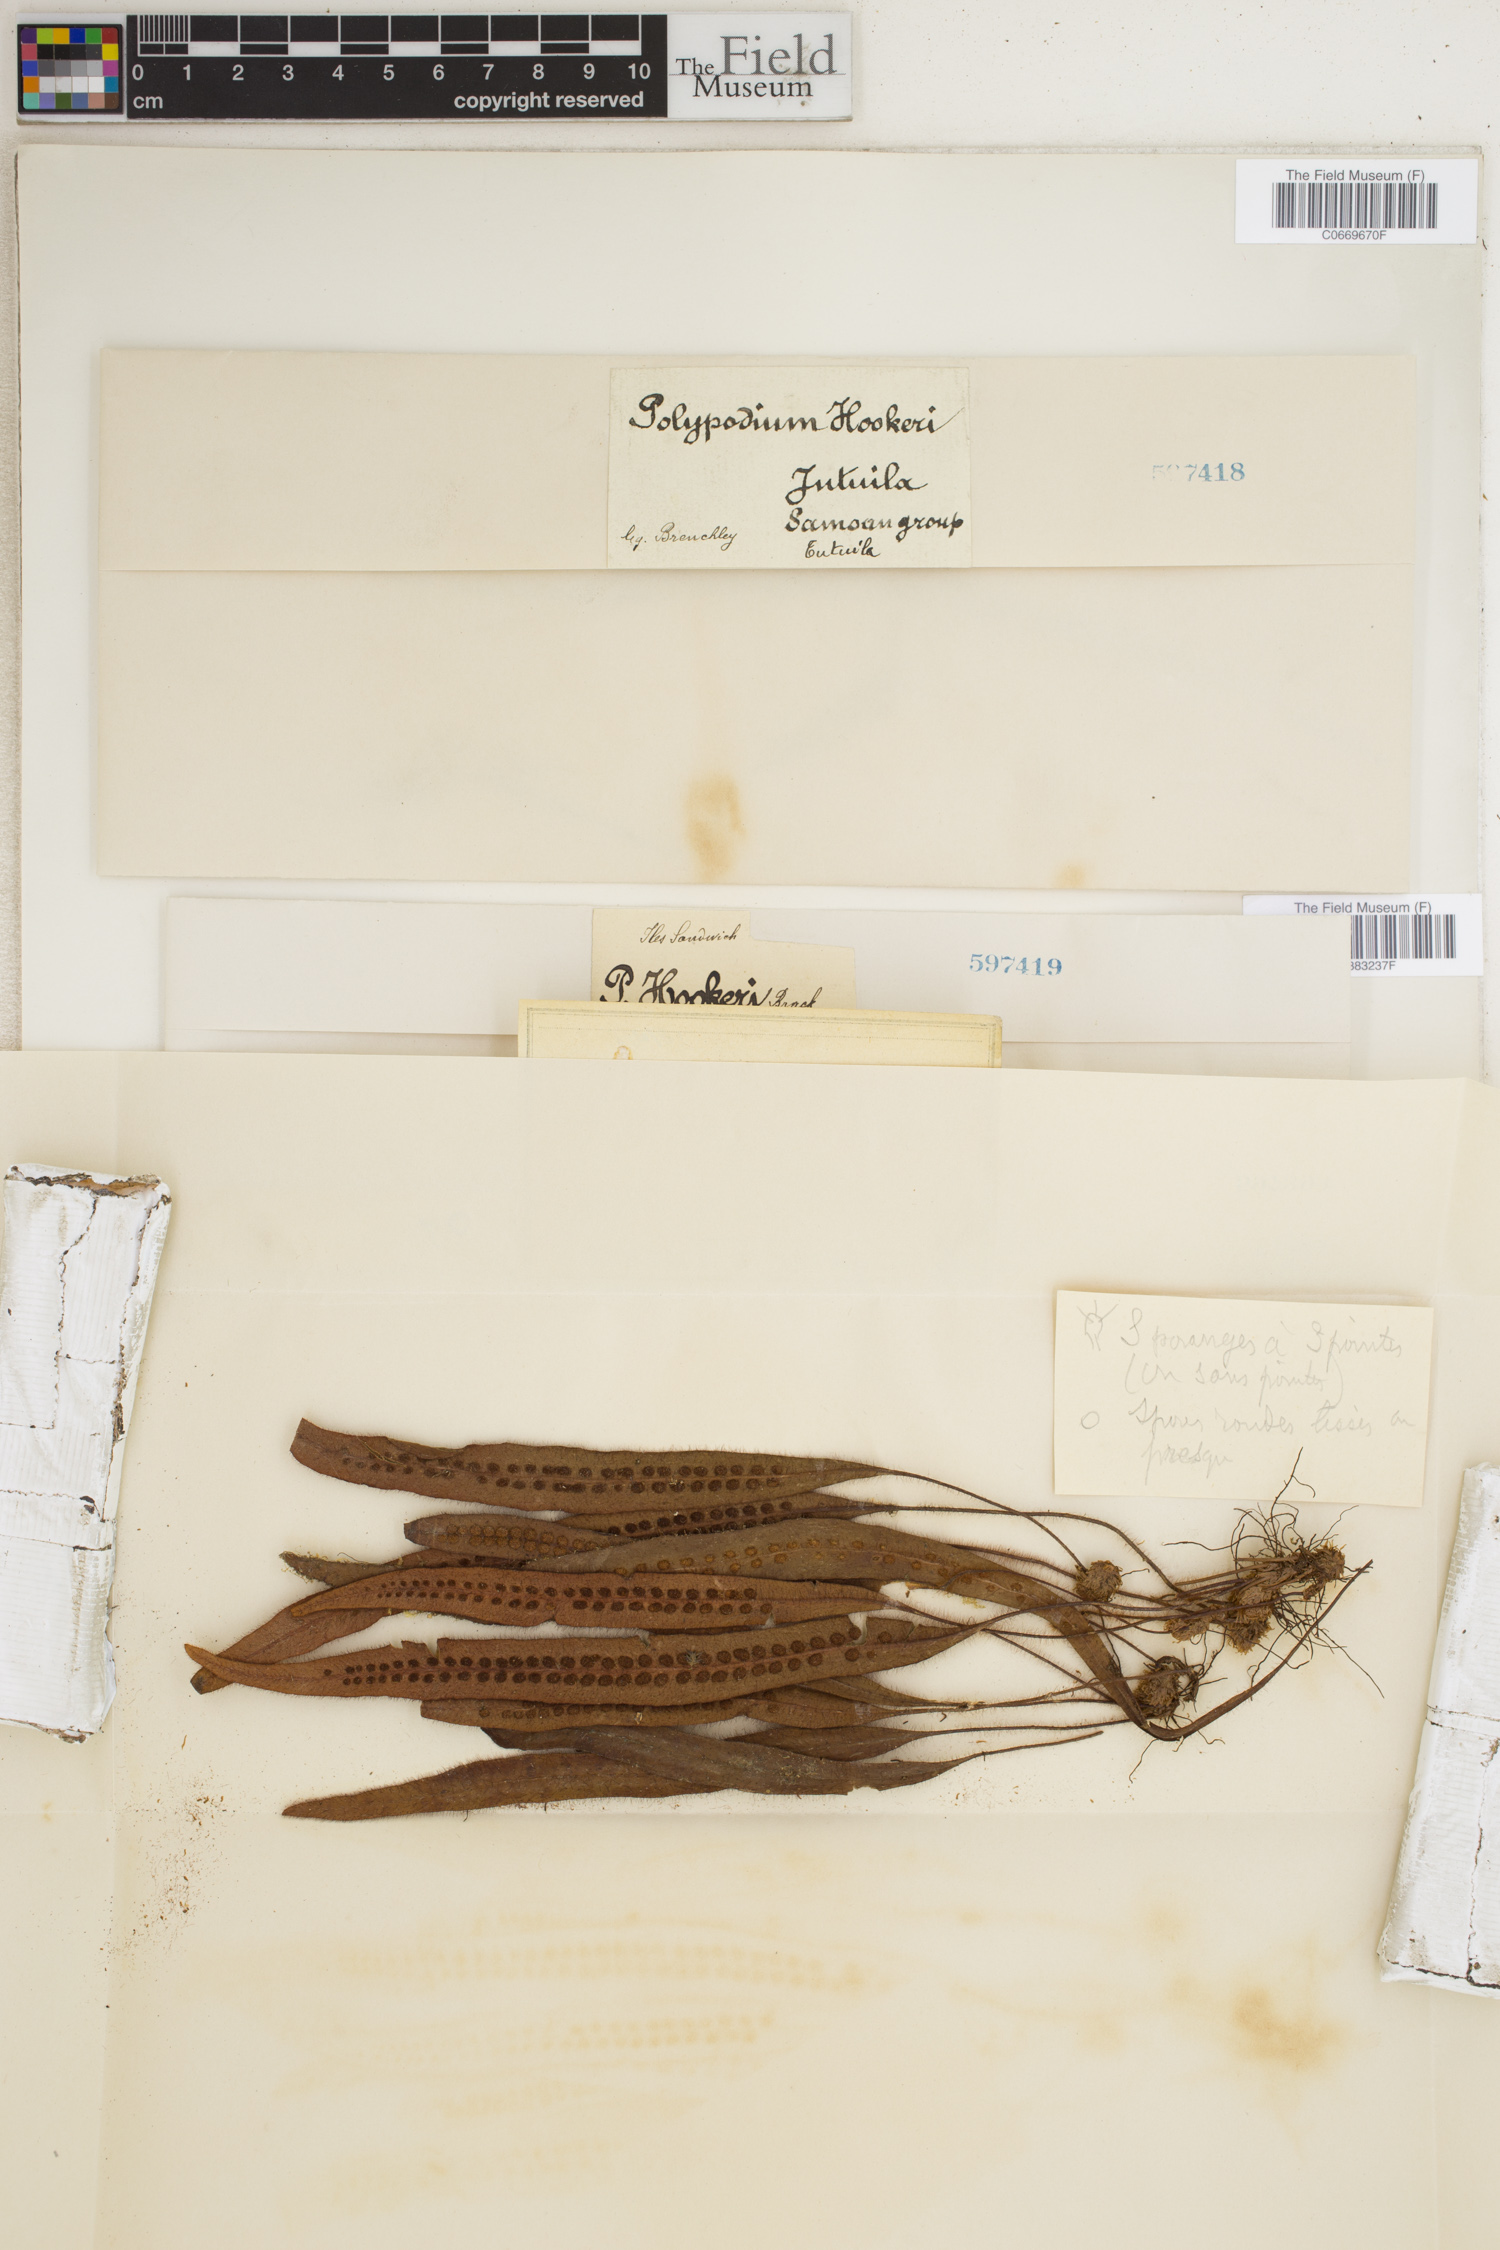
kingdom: Plantae
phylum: Tracheophyta
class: Polypodiopsida
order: Polypodiales
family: Polypodiaceae
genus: Oreogrammitis
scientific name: Oreogrammitis hookeri
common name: Hooker's dwarf polypody
